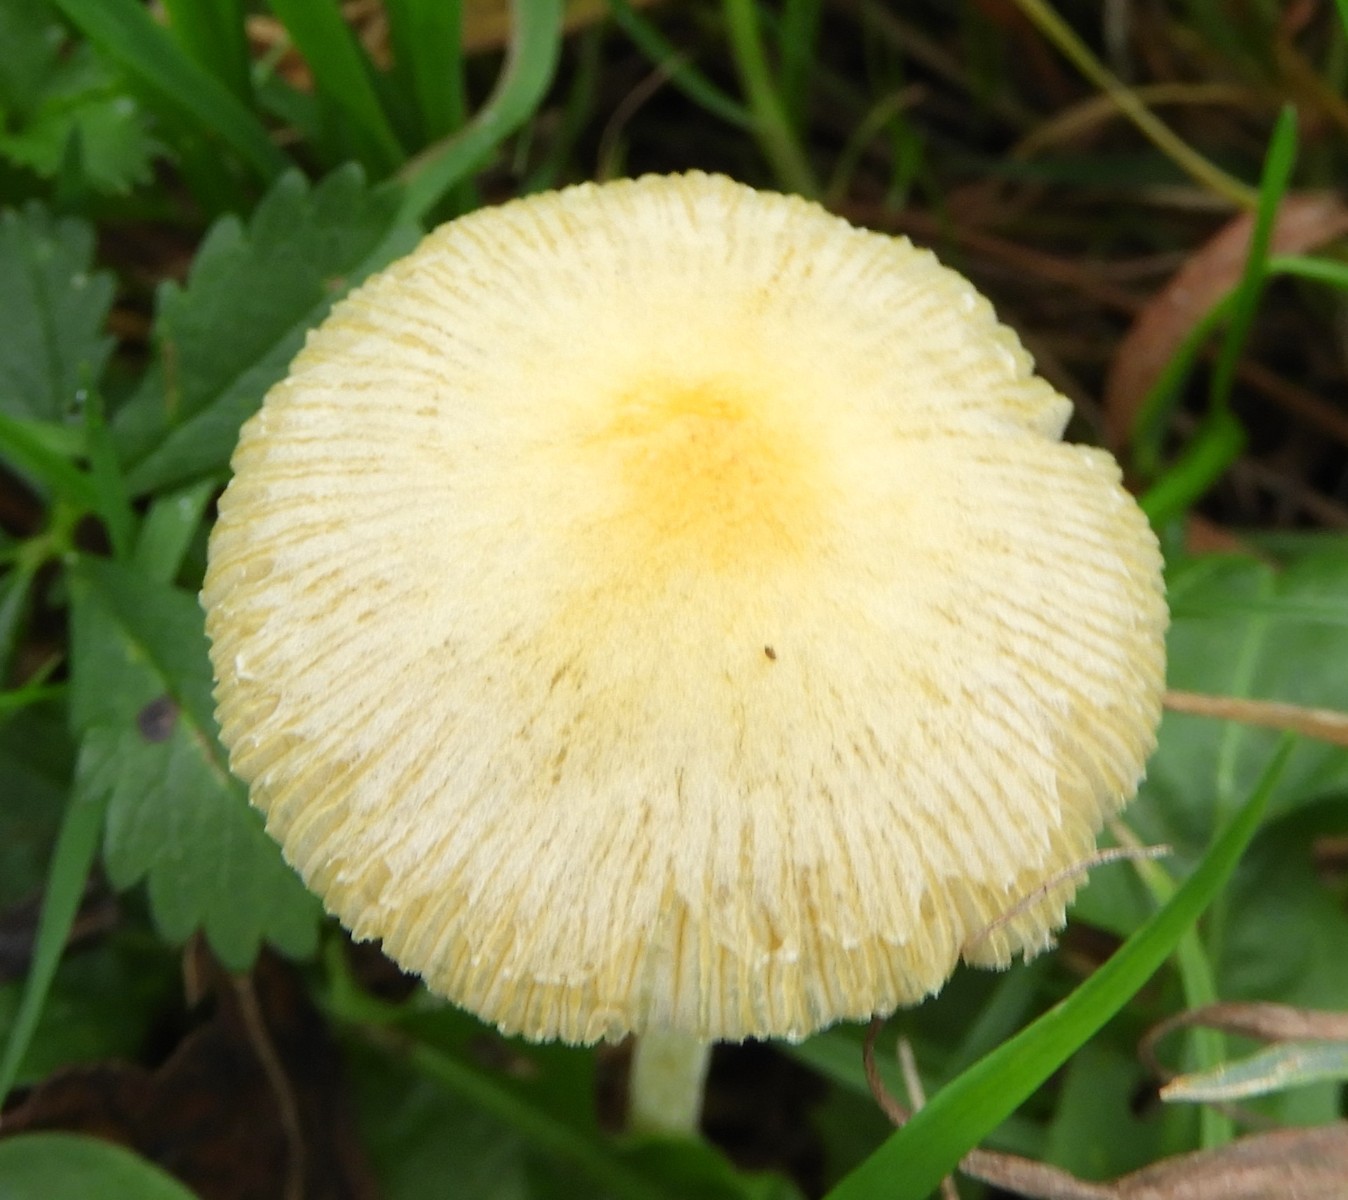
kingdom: Fungi
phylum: Basidiomycota
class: Agaricomycetes
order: Agaricales
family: Bolbitiaceae
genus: Bolbitius
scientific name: Bolbitius titubans
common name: almindelig gulhat
